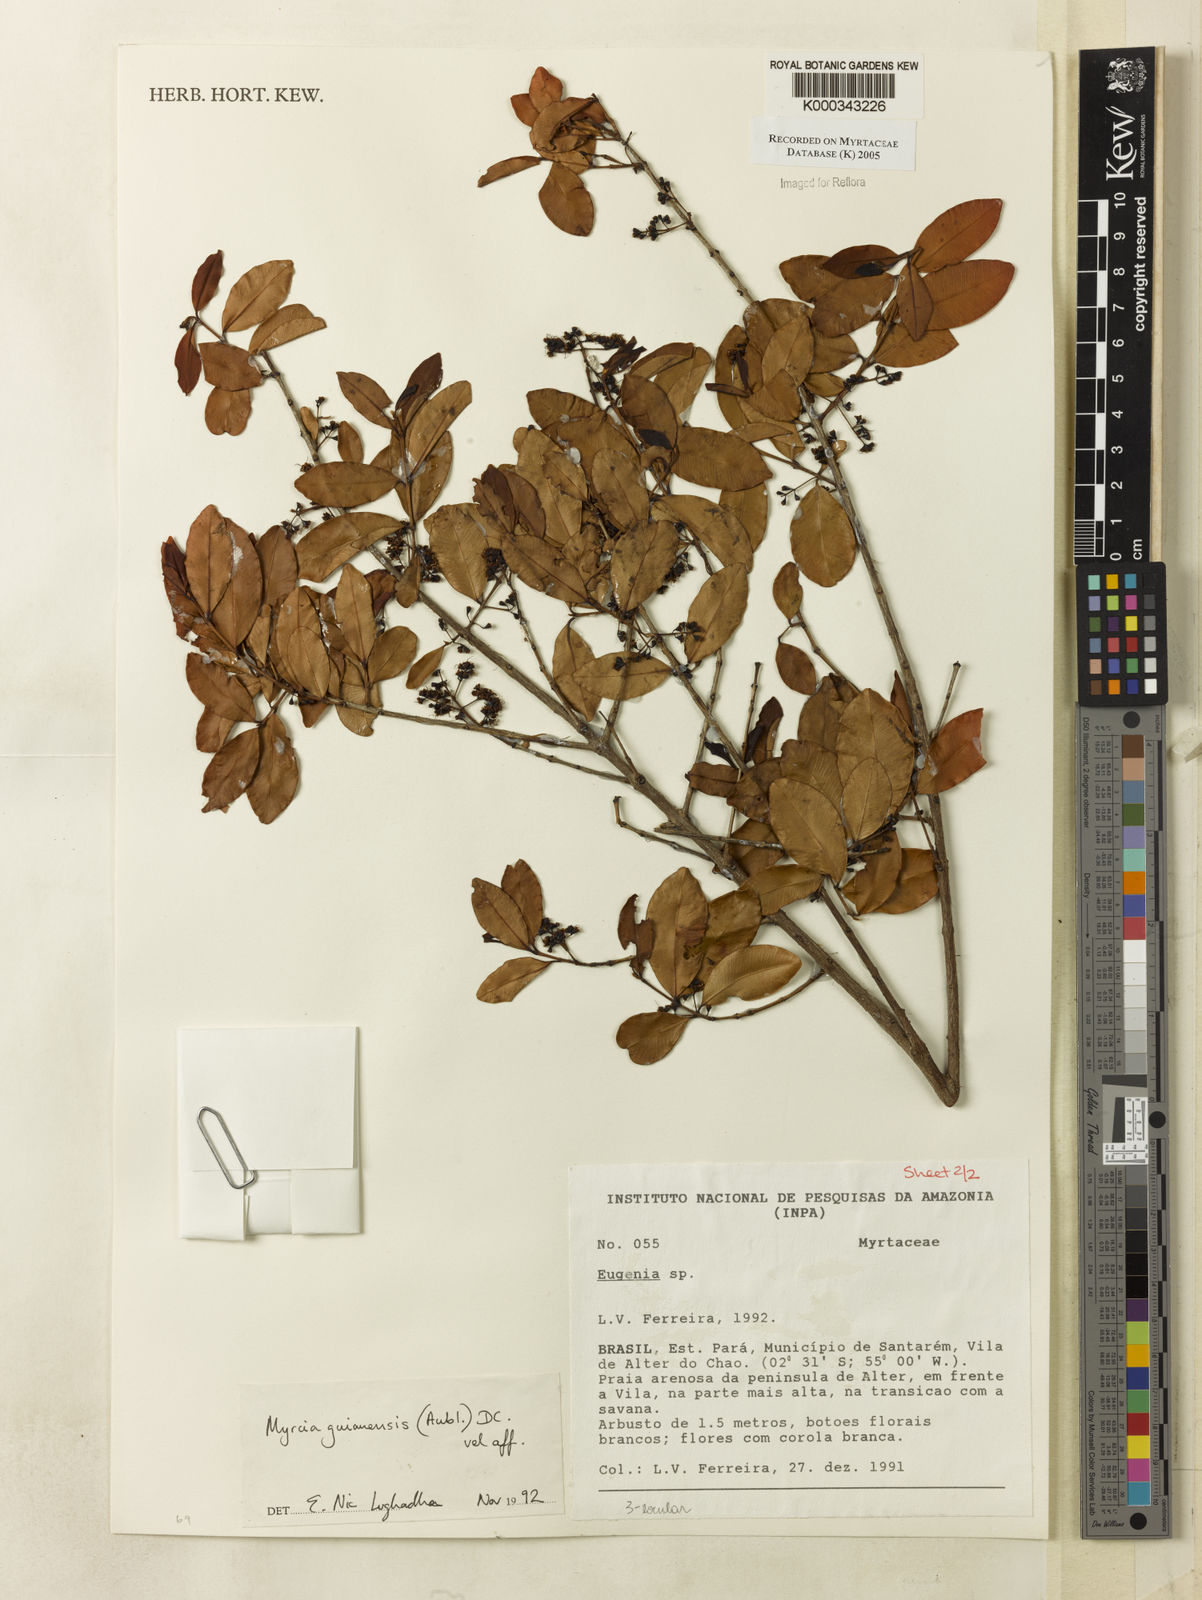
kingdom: Plantae
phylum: Tracheophyta
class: Magnoliopsida
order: Myrtales
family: Myrtaceae
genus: Myrcia
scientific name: Myrcia guianensis
